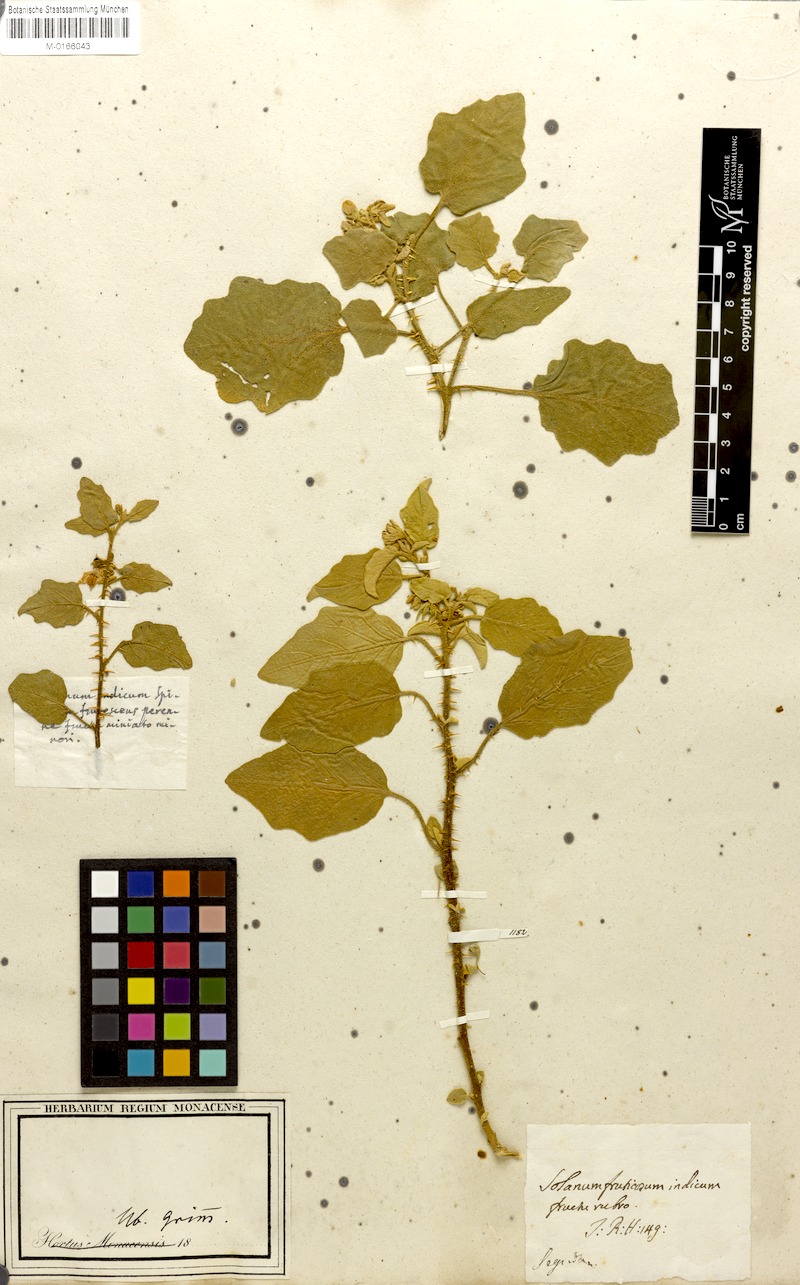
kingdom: Plantae
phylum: Tracheophyta
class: Magnoliopsida
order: Solanales
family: Solanaceae
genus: Solanum
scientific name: Solanum tomentosum
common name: Wild aubergine
